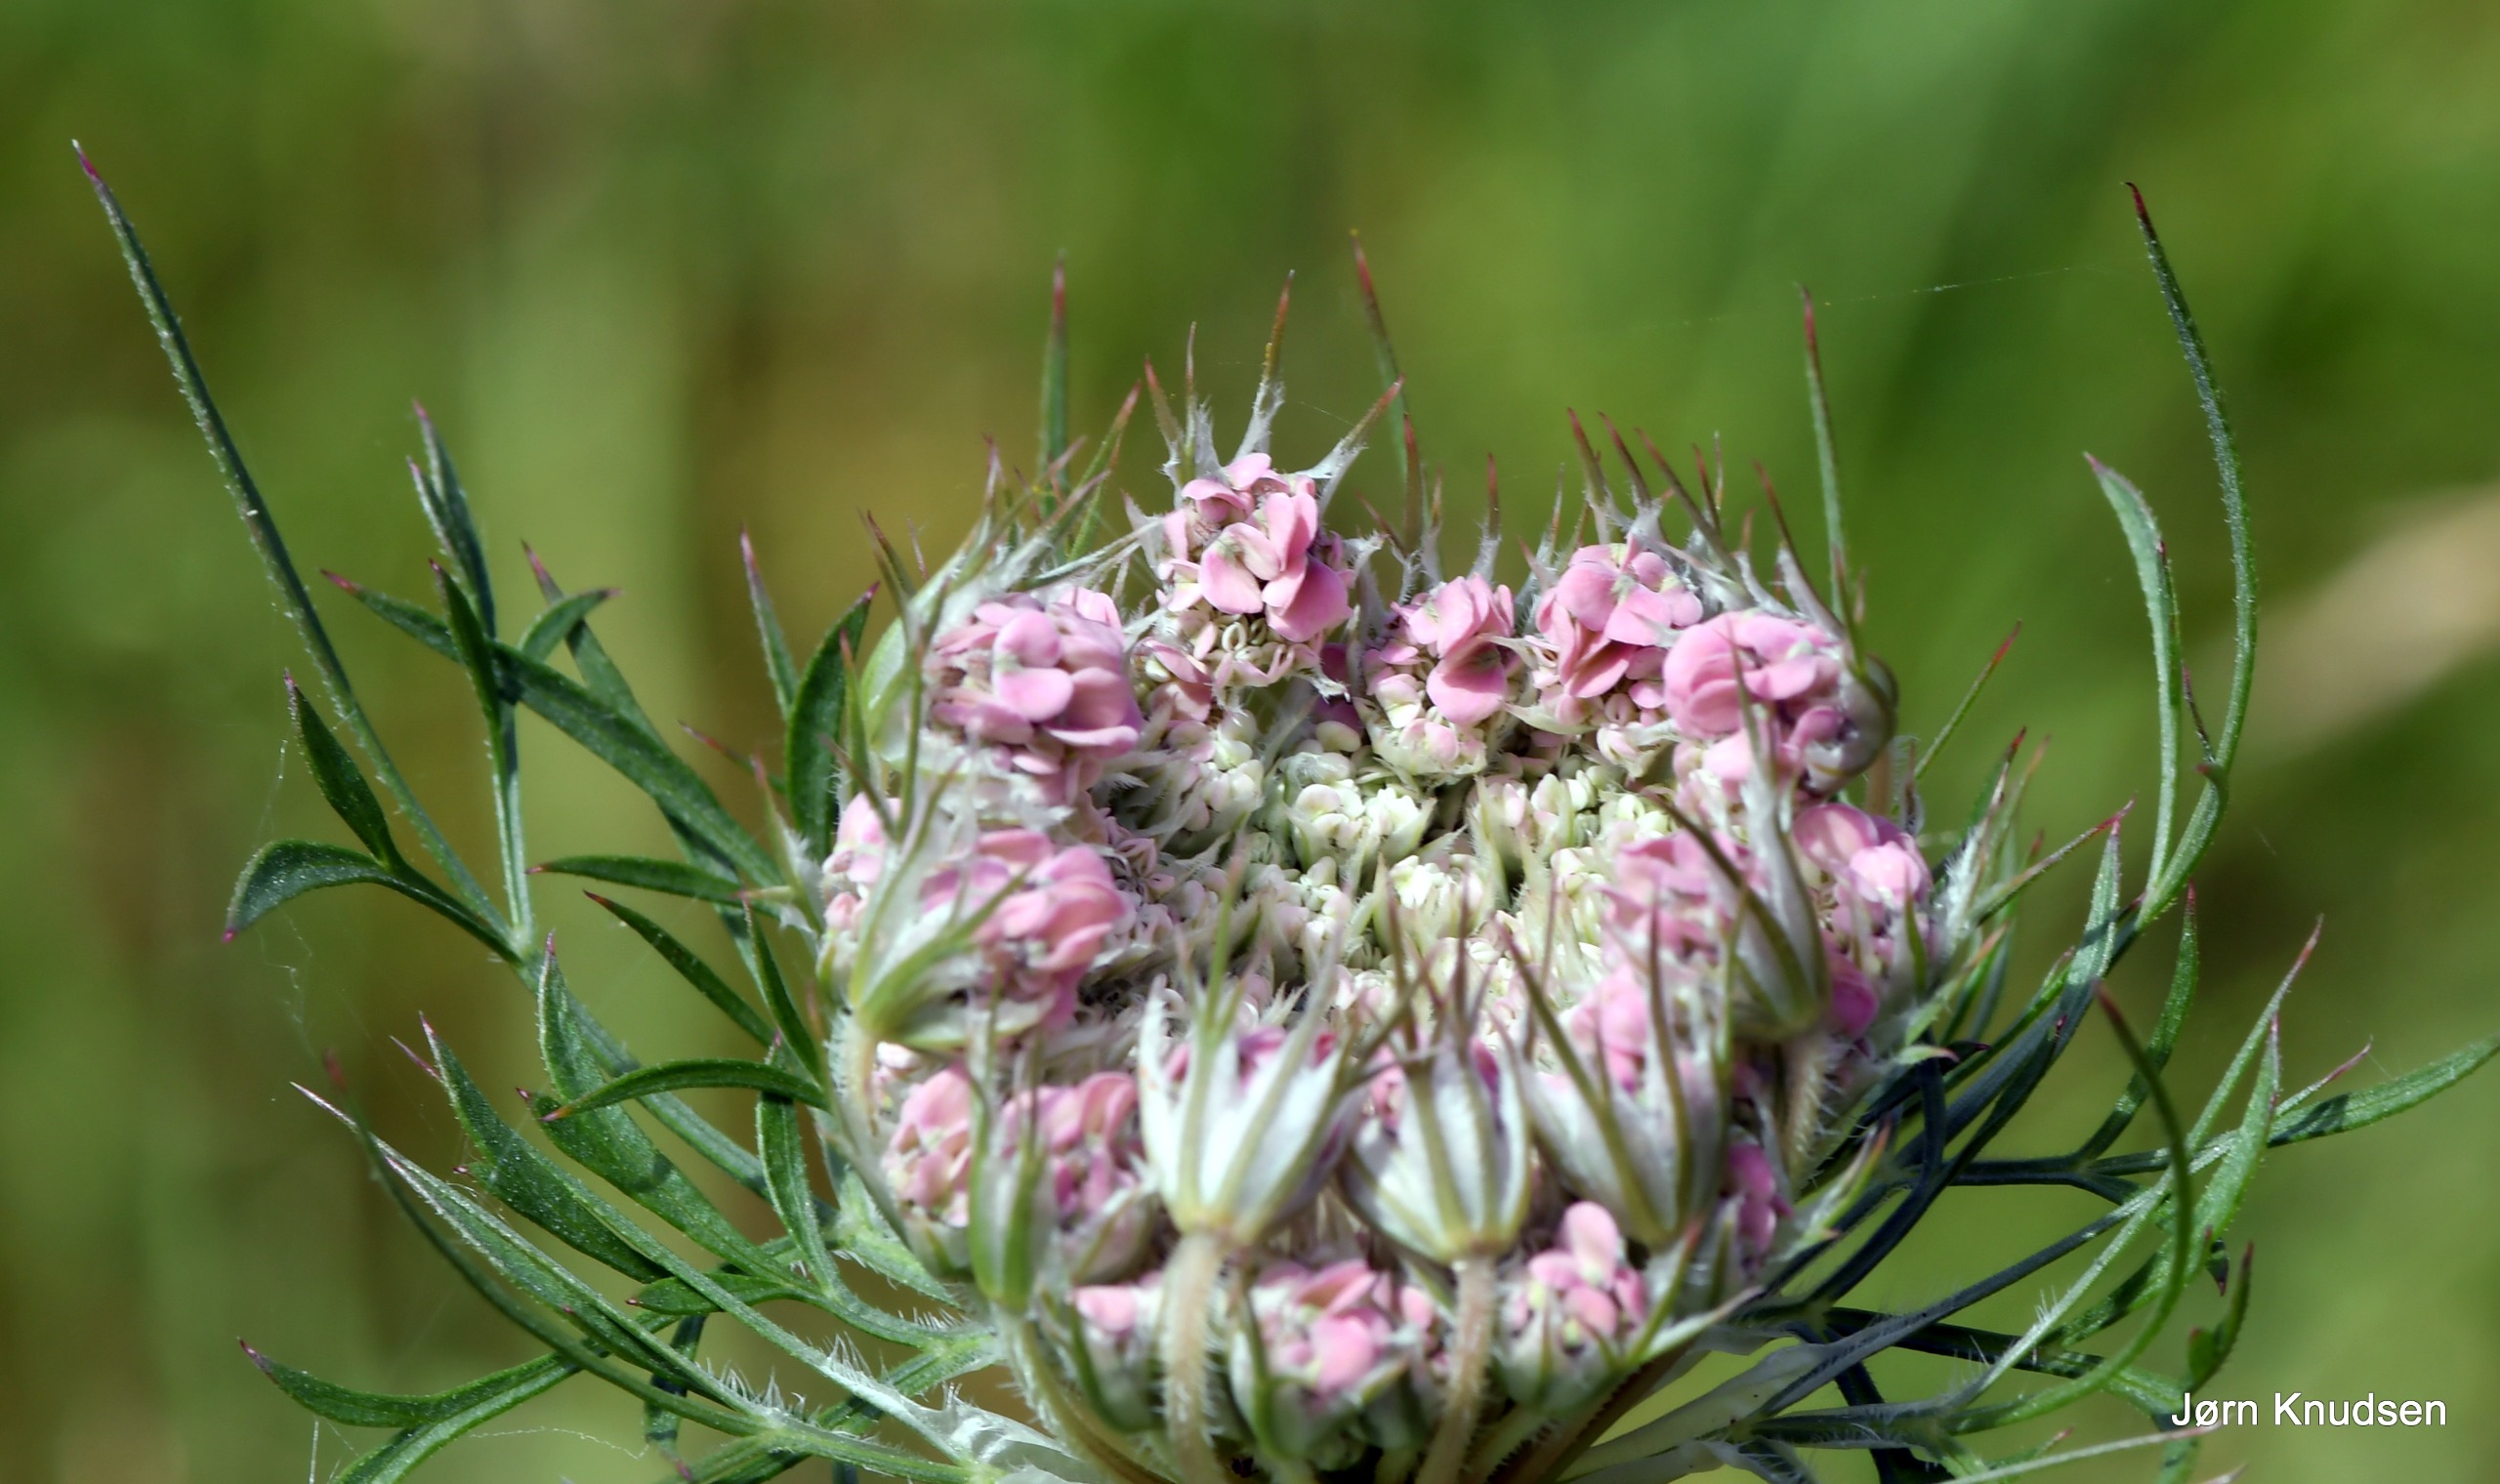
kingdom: Plantae
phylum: Tracheophyta
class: Magnoliopsida
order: Apiales
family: Apiaceae
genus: Daucus
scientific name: Daucus carota
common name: Vild gulerod
